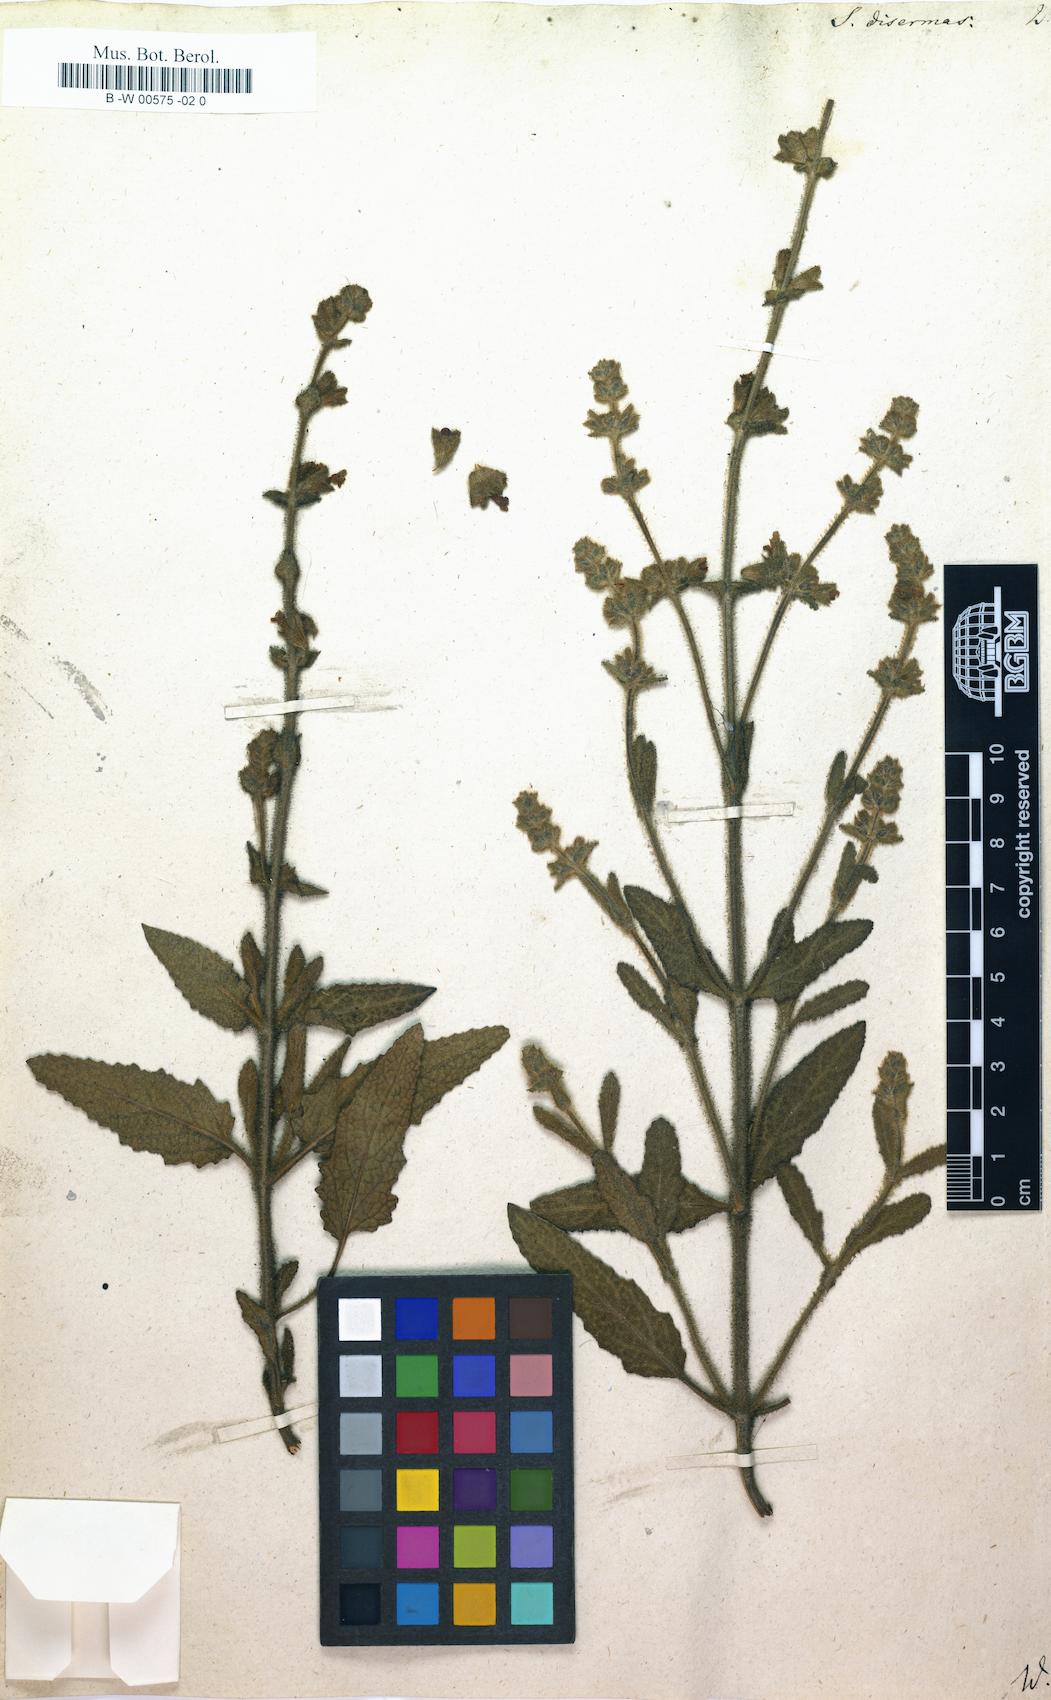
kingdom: Plantae
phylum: Tracheophyta
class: Magnoliopsida
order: Lamiales
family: Lamiaceae
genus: Salvia
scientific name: Salvia disermas
